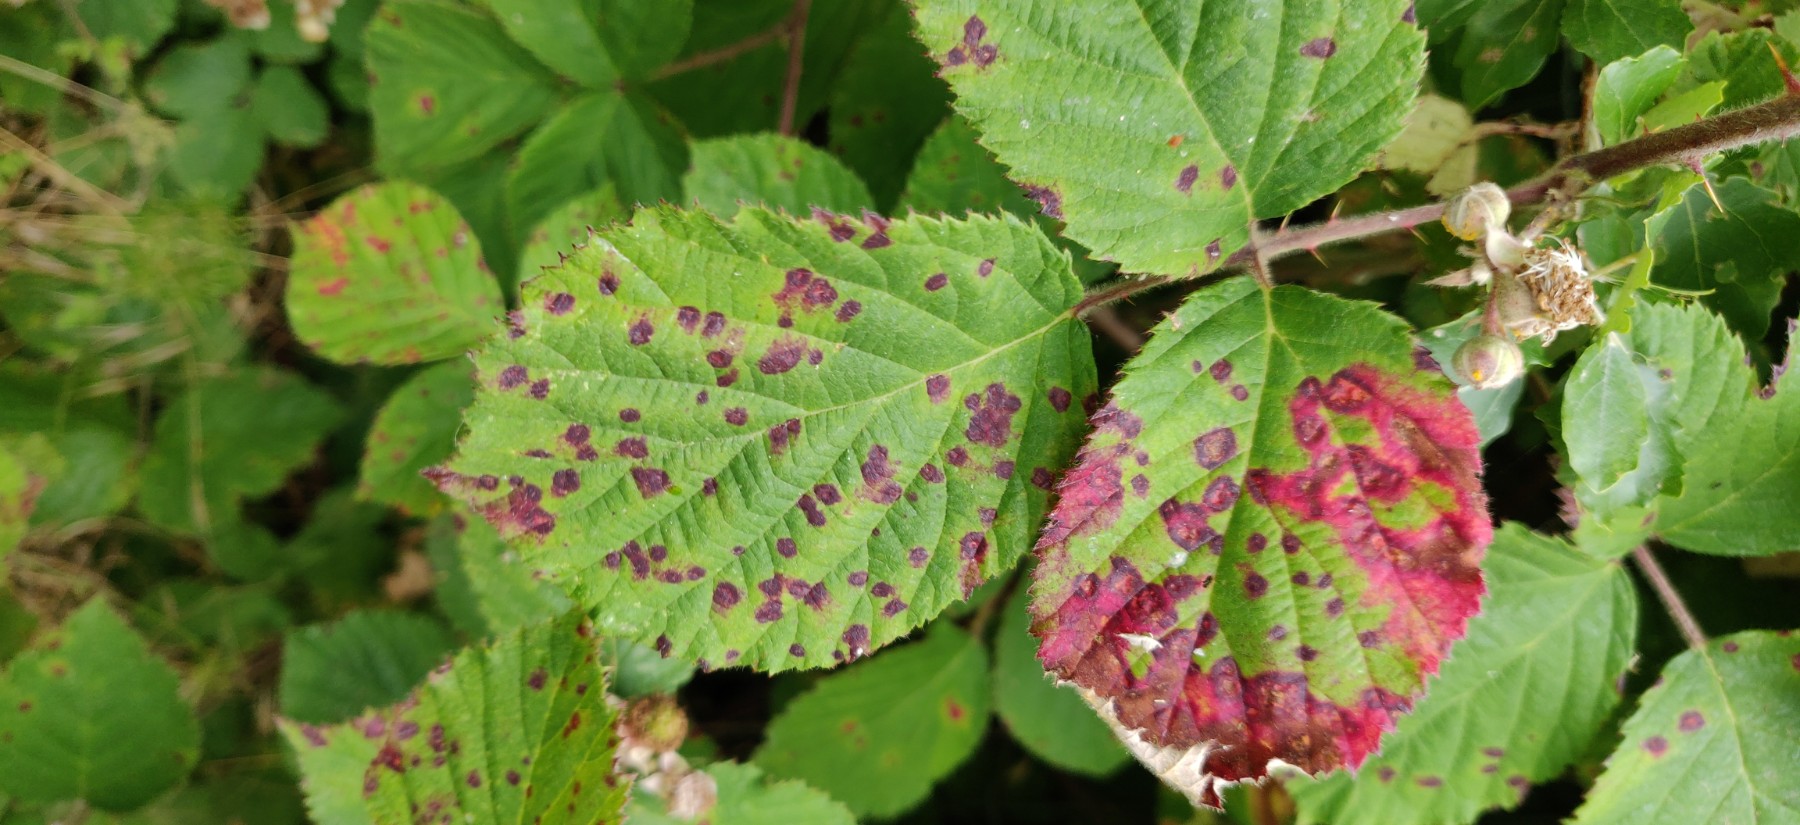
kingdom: Fungi
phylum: Basidiomycota
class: Pucciniomycetes
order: Pucciniales
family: Phragmidiaceae
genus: Phragmidium
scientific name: Phragmidium violaceum
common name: violet flercellerust
